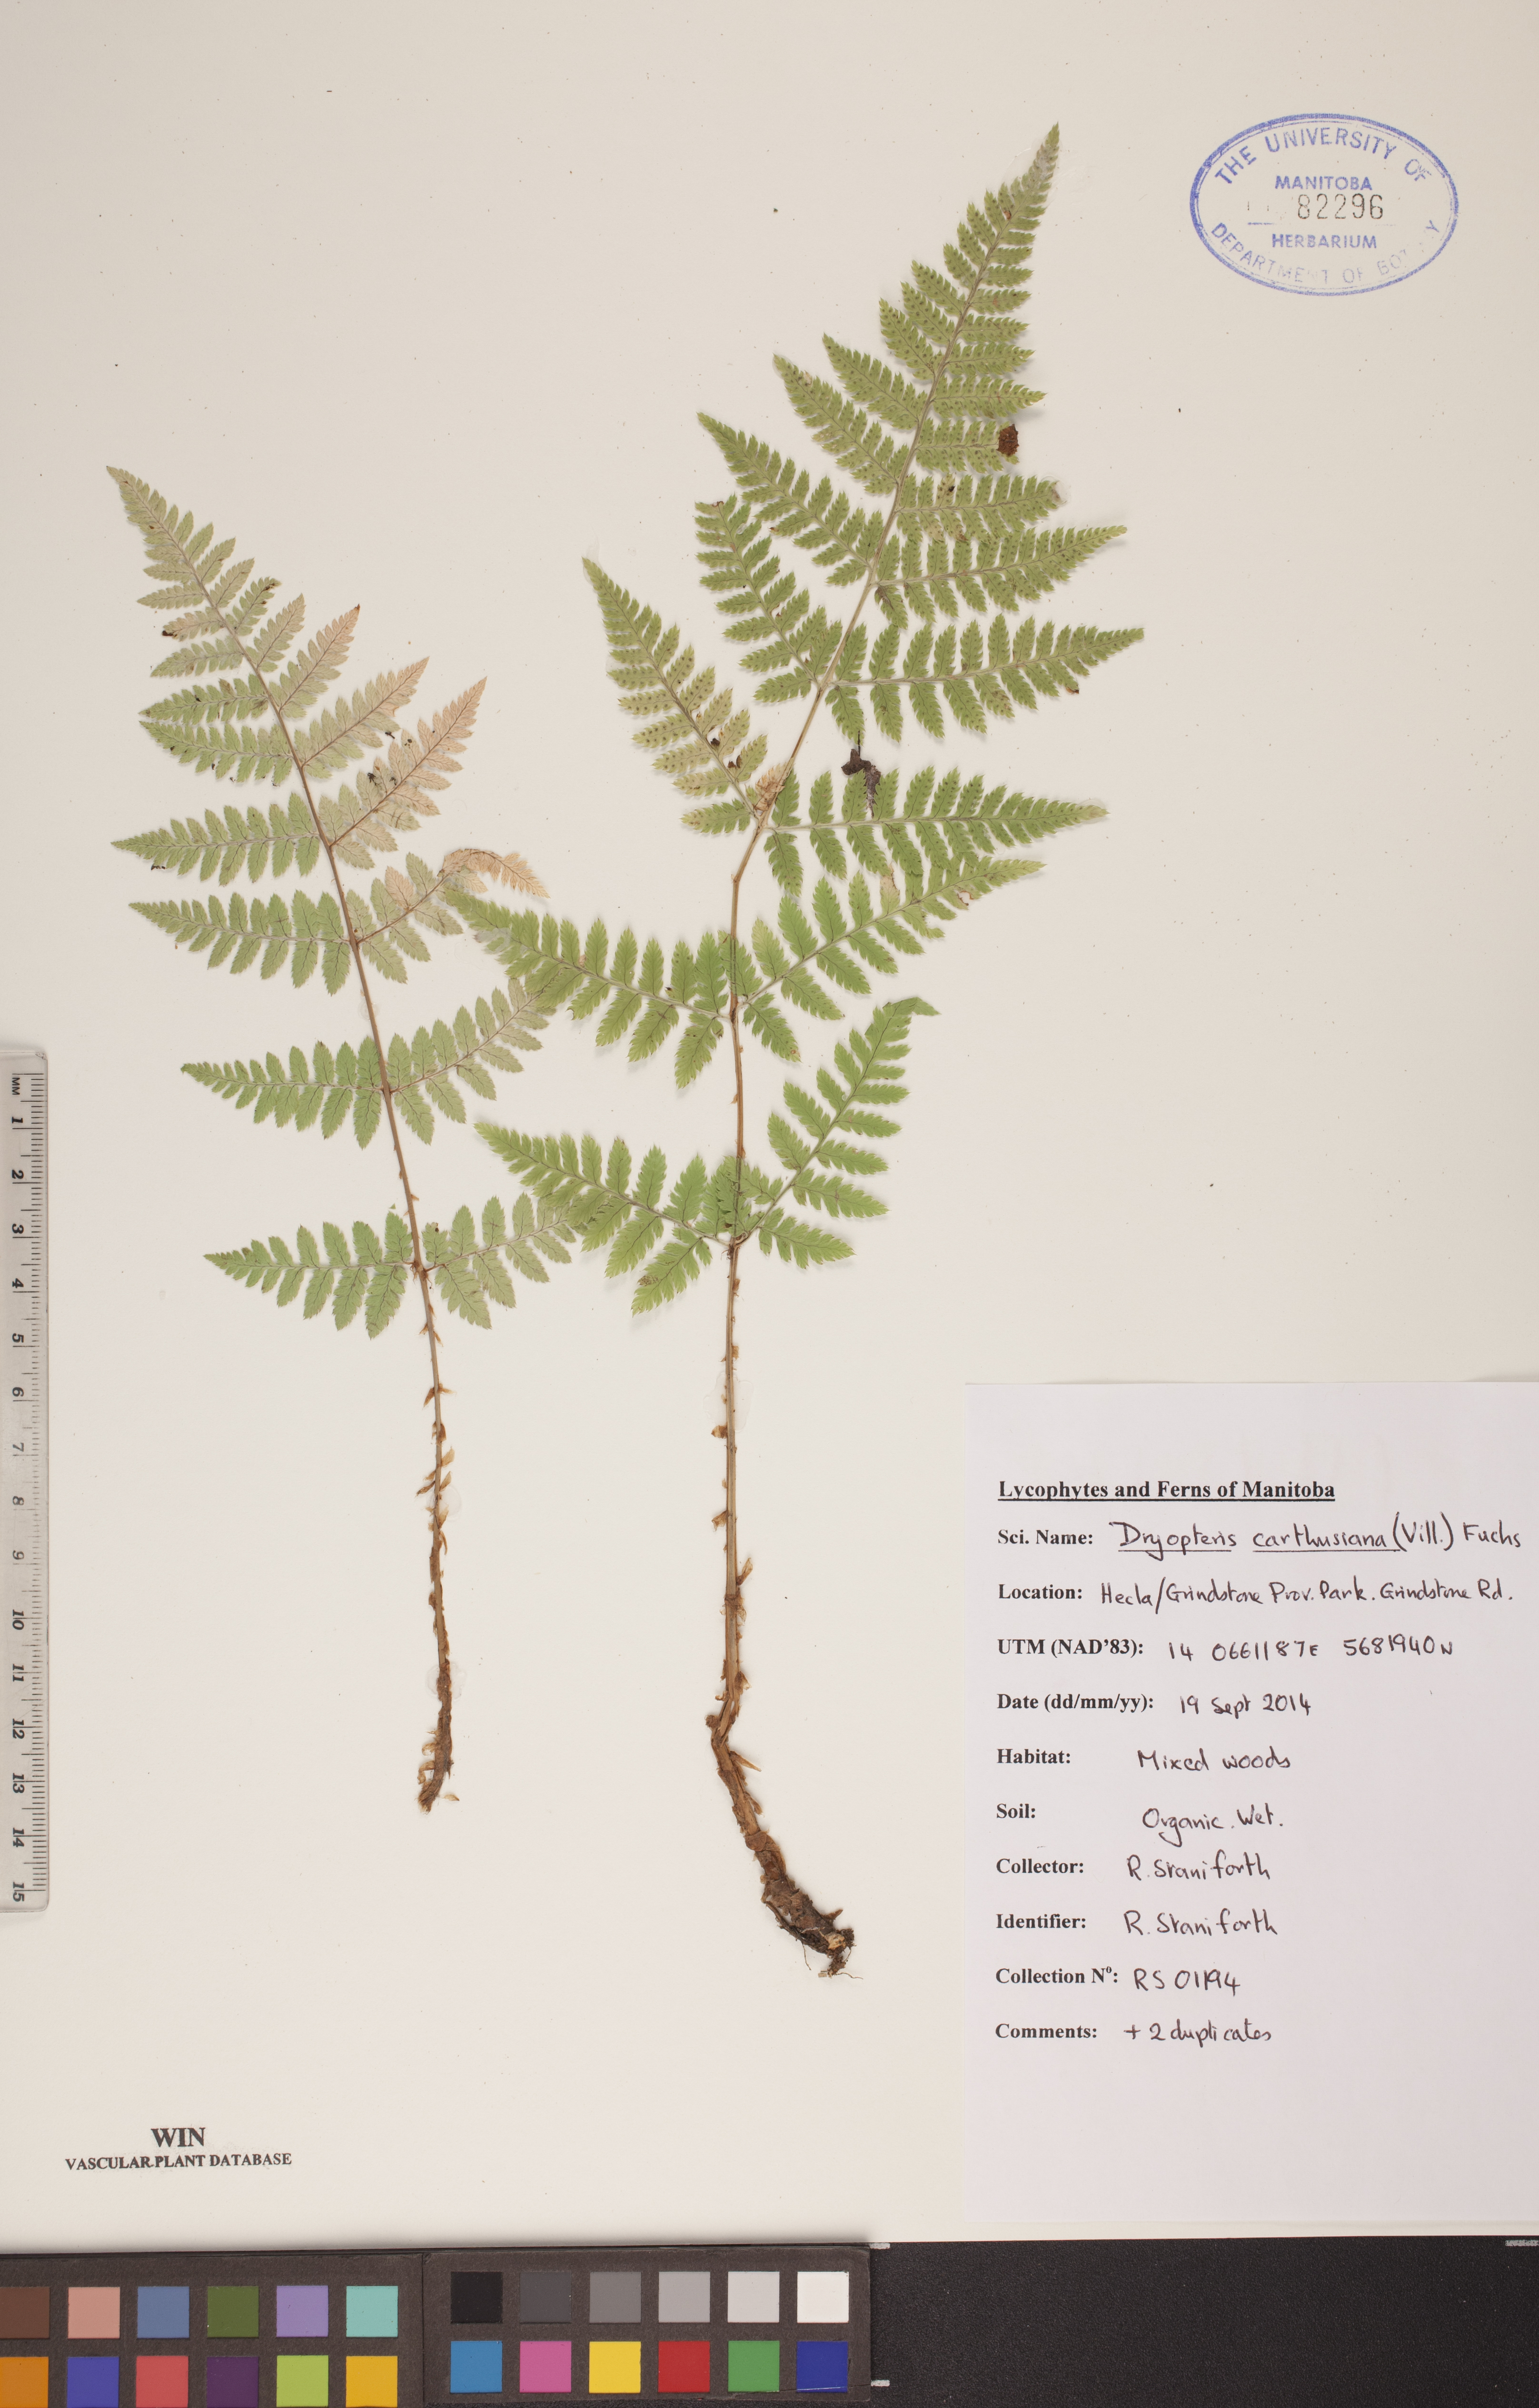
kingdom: Plantae
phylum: Tracheophyta
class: Polypodiopsida
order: Polypodiales
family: Dryopteridaceae
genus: Dryopteris
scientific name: Dryopteris carthusiana
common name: Narrow buckler-fern
